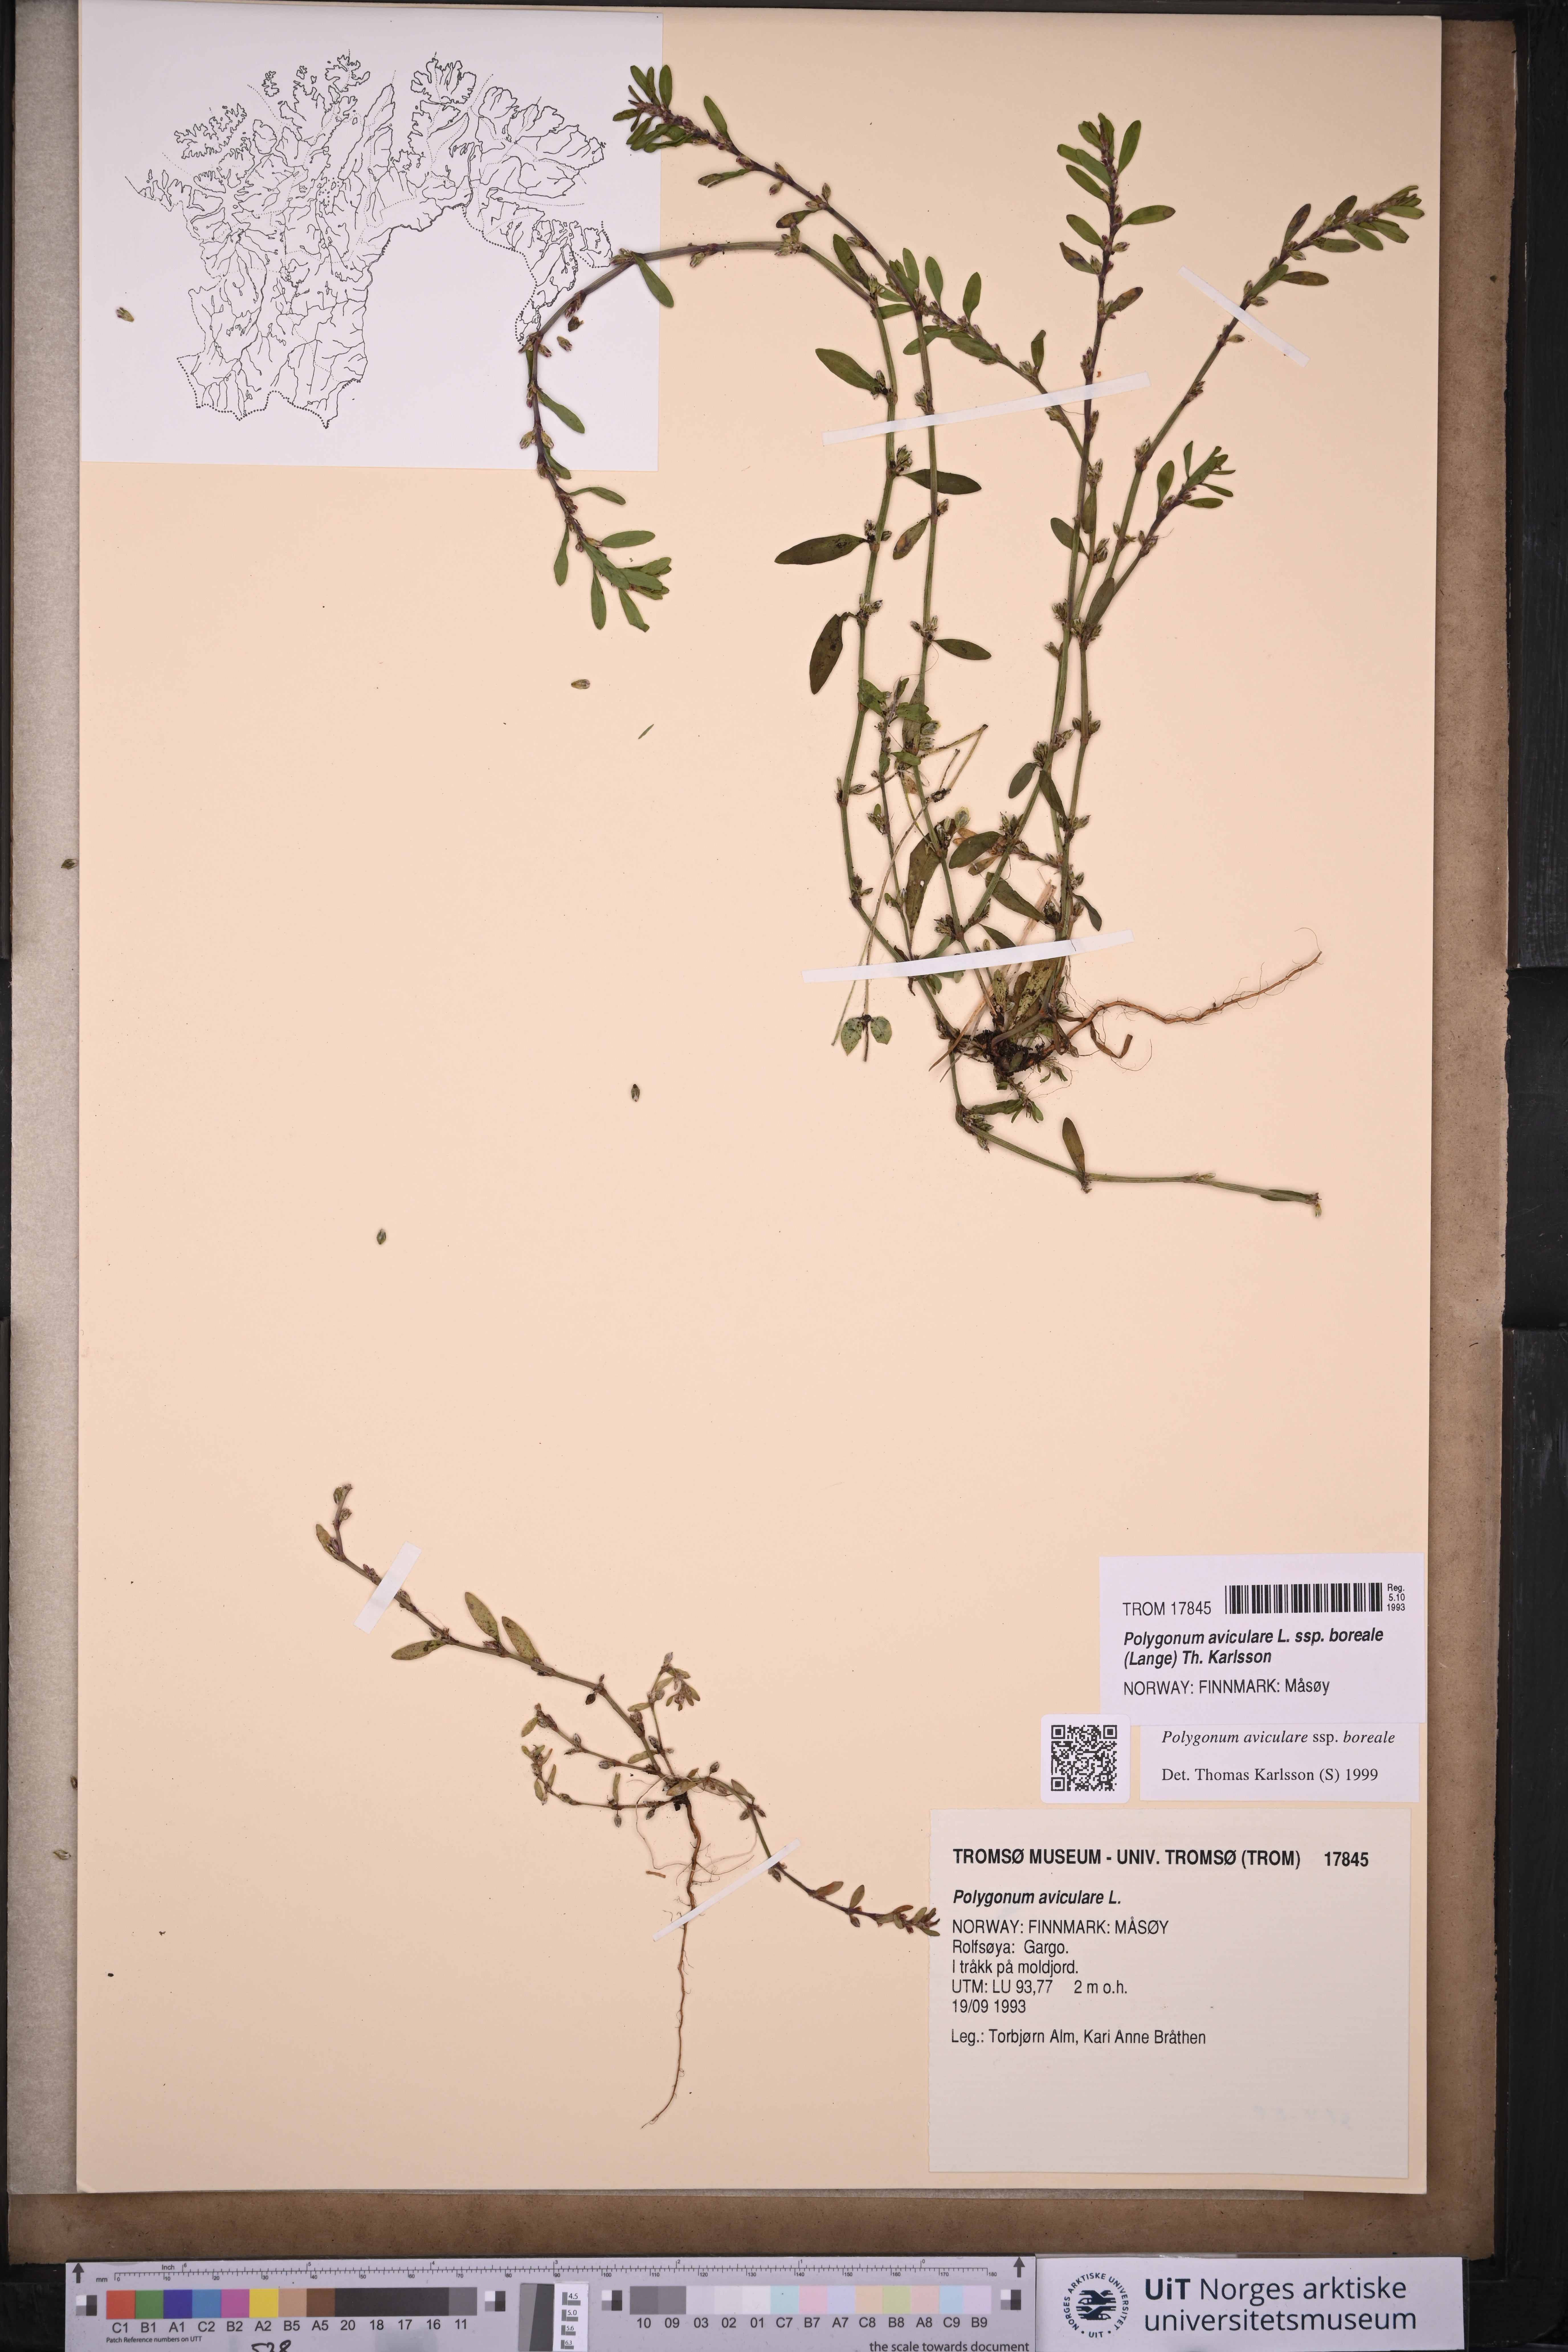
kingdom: Plantae
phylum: Tracheophyta
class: Magnoliopsida
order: Caryophyllales
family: Polygonaceae
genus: Polygonum
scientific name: Polygonum boreale
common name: Northern knotgrass
